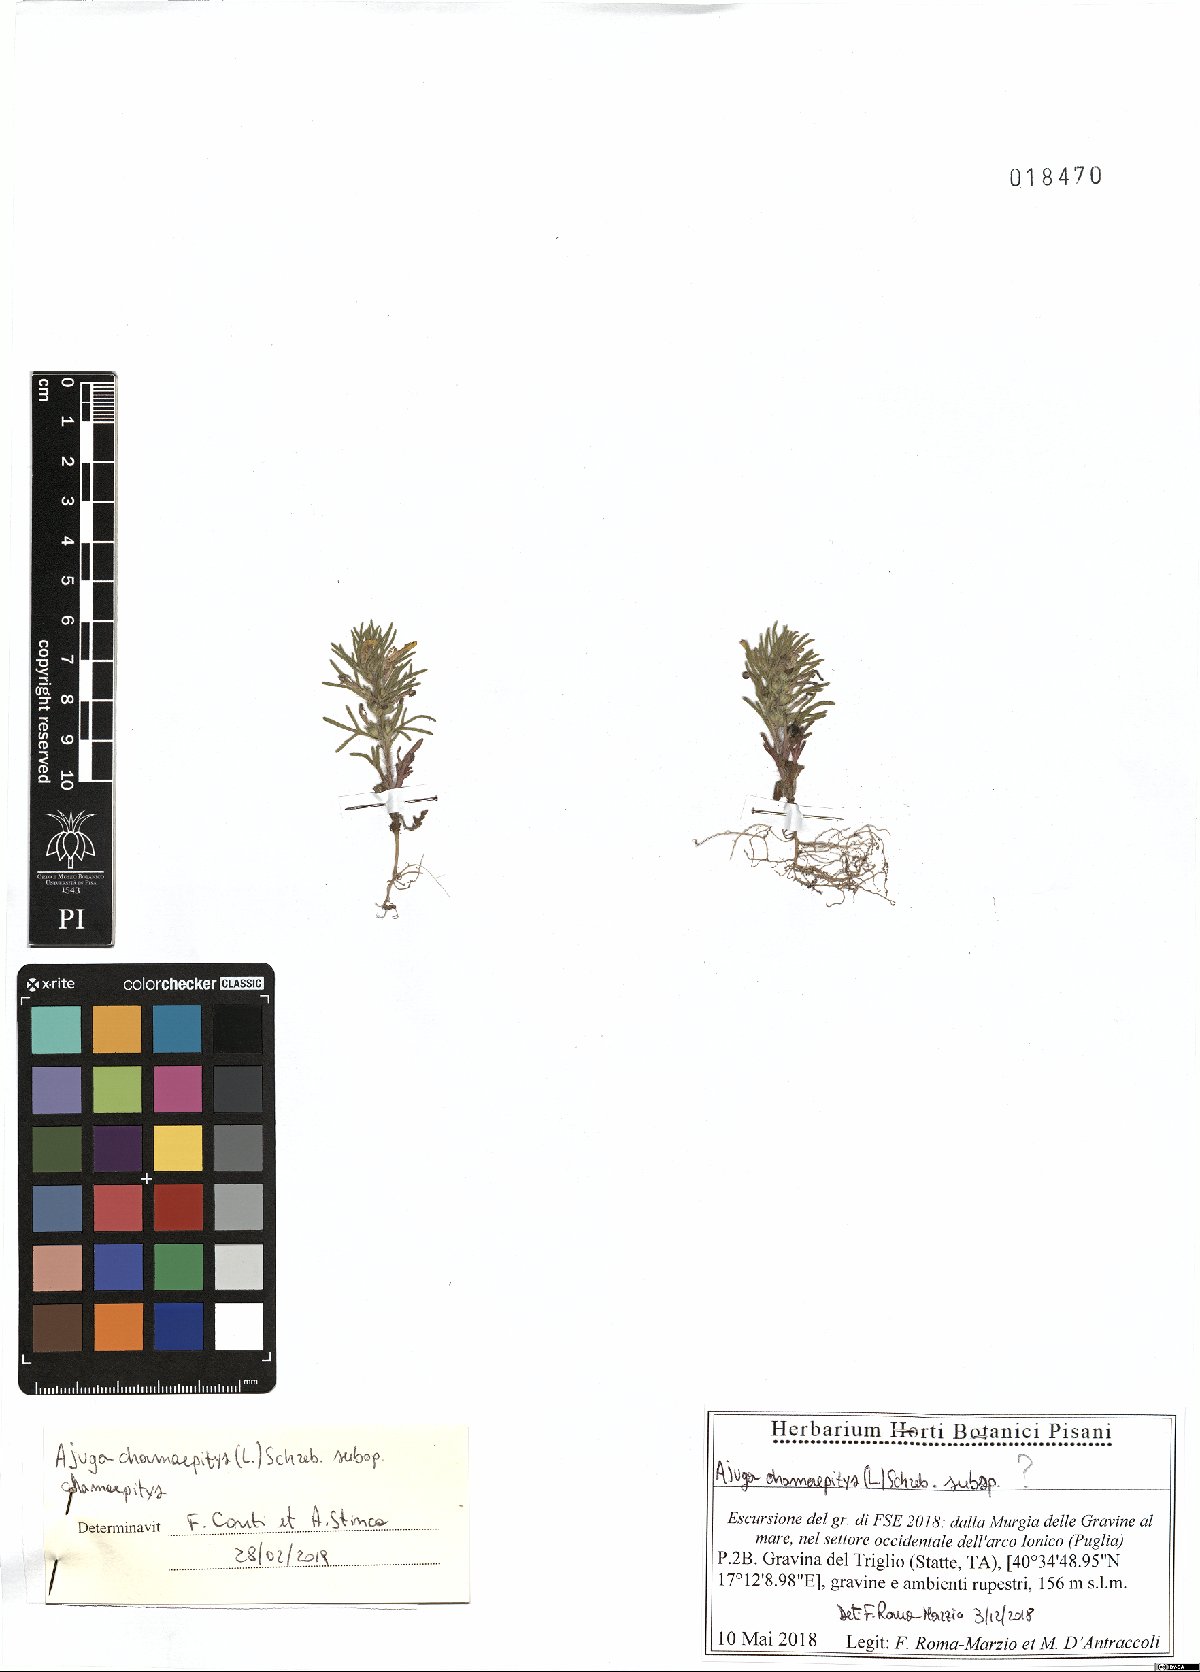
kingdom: Plantae
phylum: Tracheophyta
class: Magnoliopsida
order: Lamiales
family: Lamiaceae
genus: Ajuga
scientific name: Ajuga chamaepitys
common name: Ground-pine
